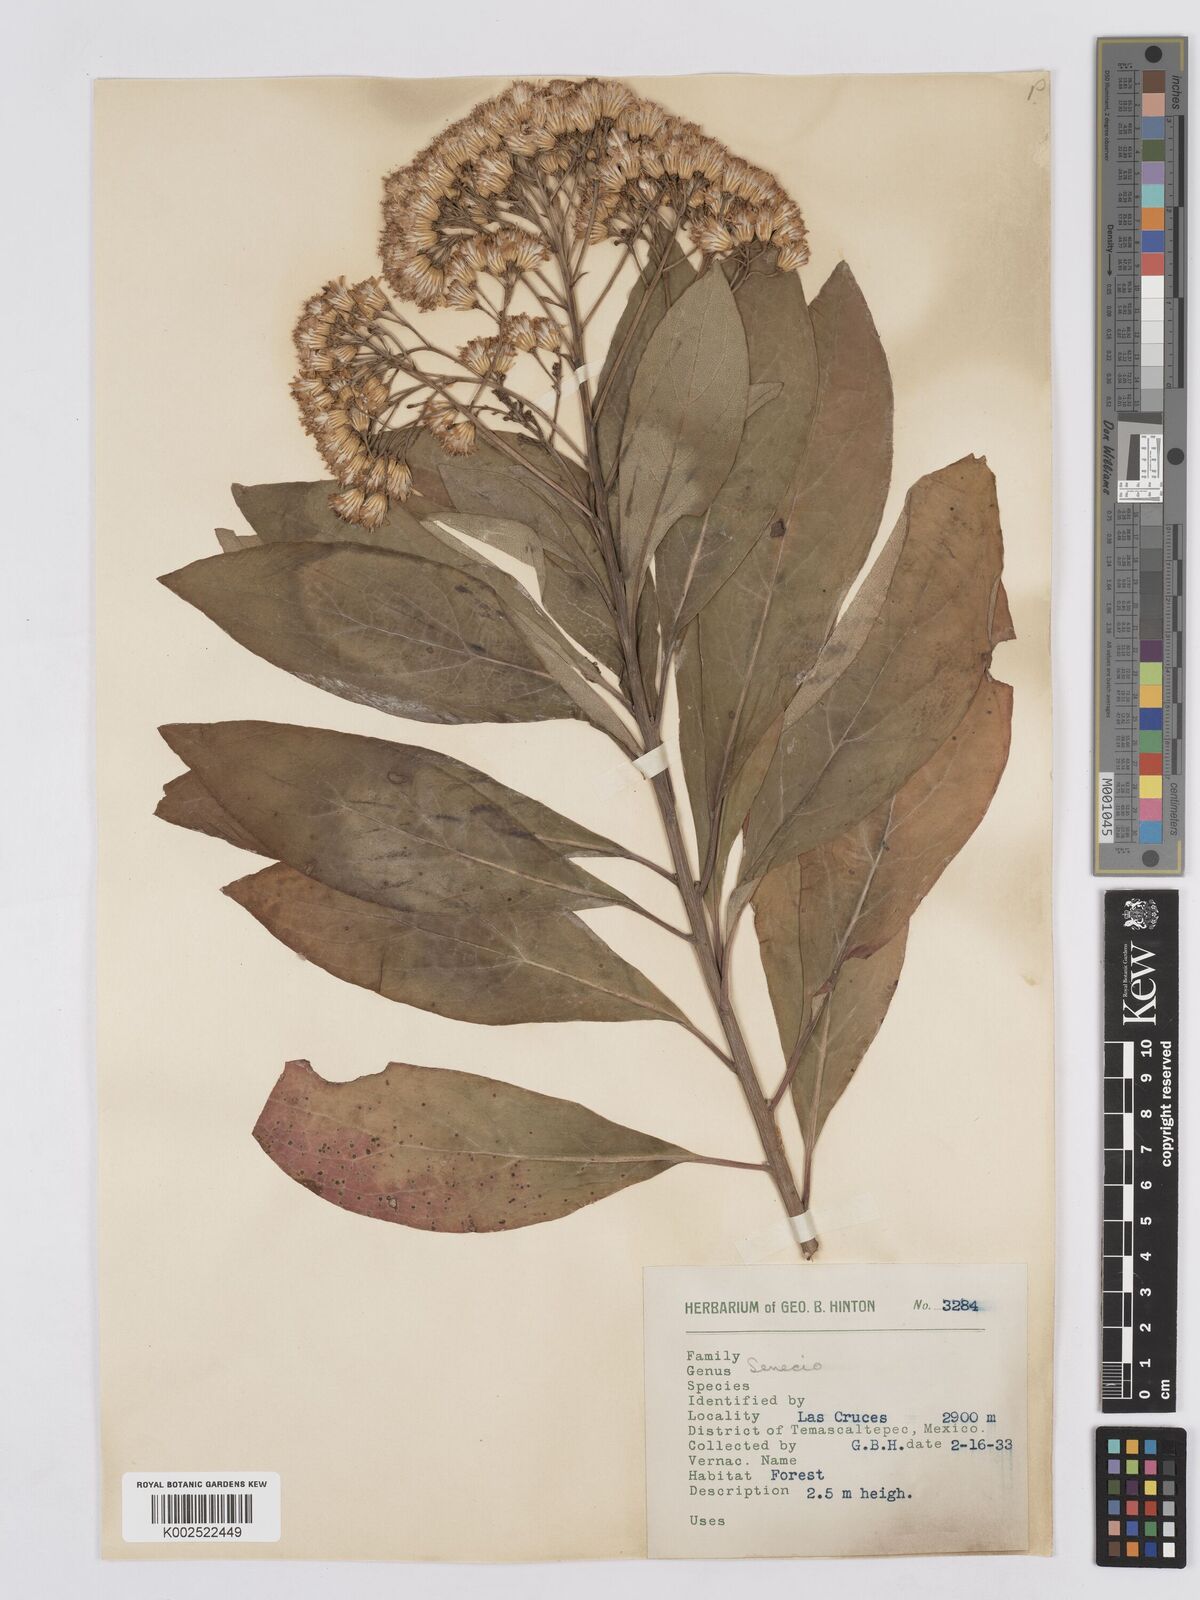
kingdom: Plantae
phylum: Tracheophyta
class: Magnoliopsida
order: Asterales
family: Asteraceae
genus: Roldana
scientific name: Roldana hintonii
